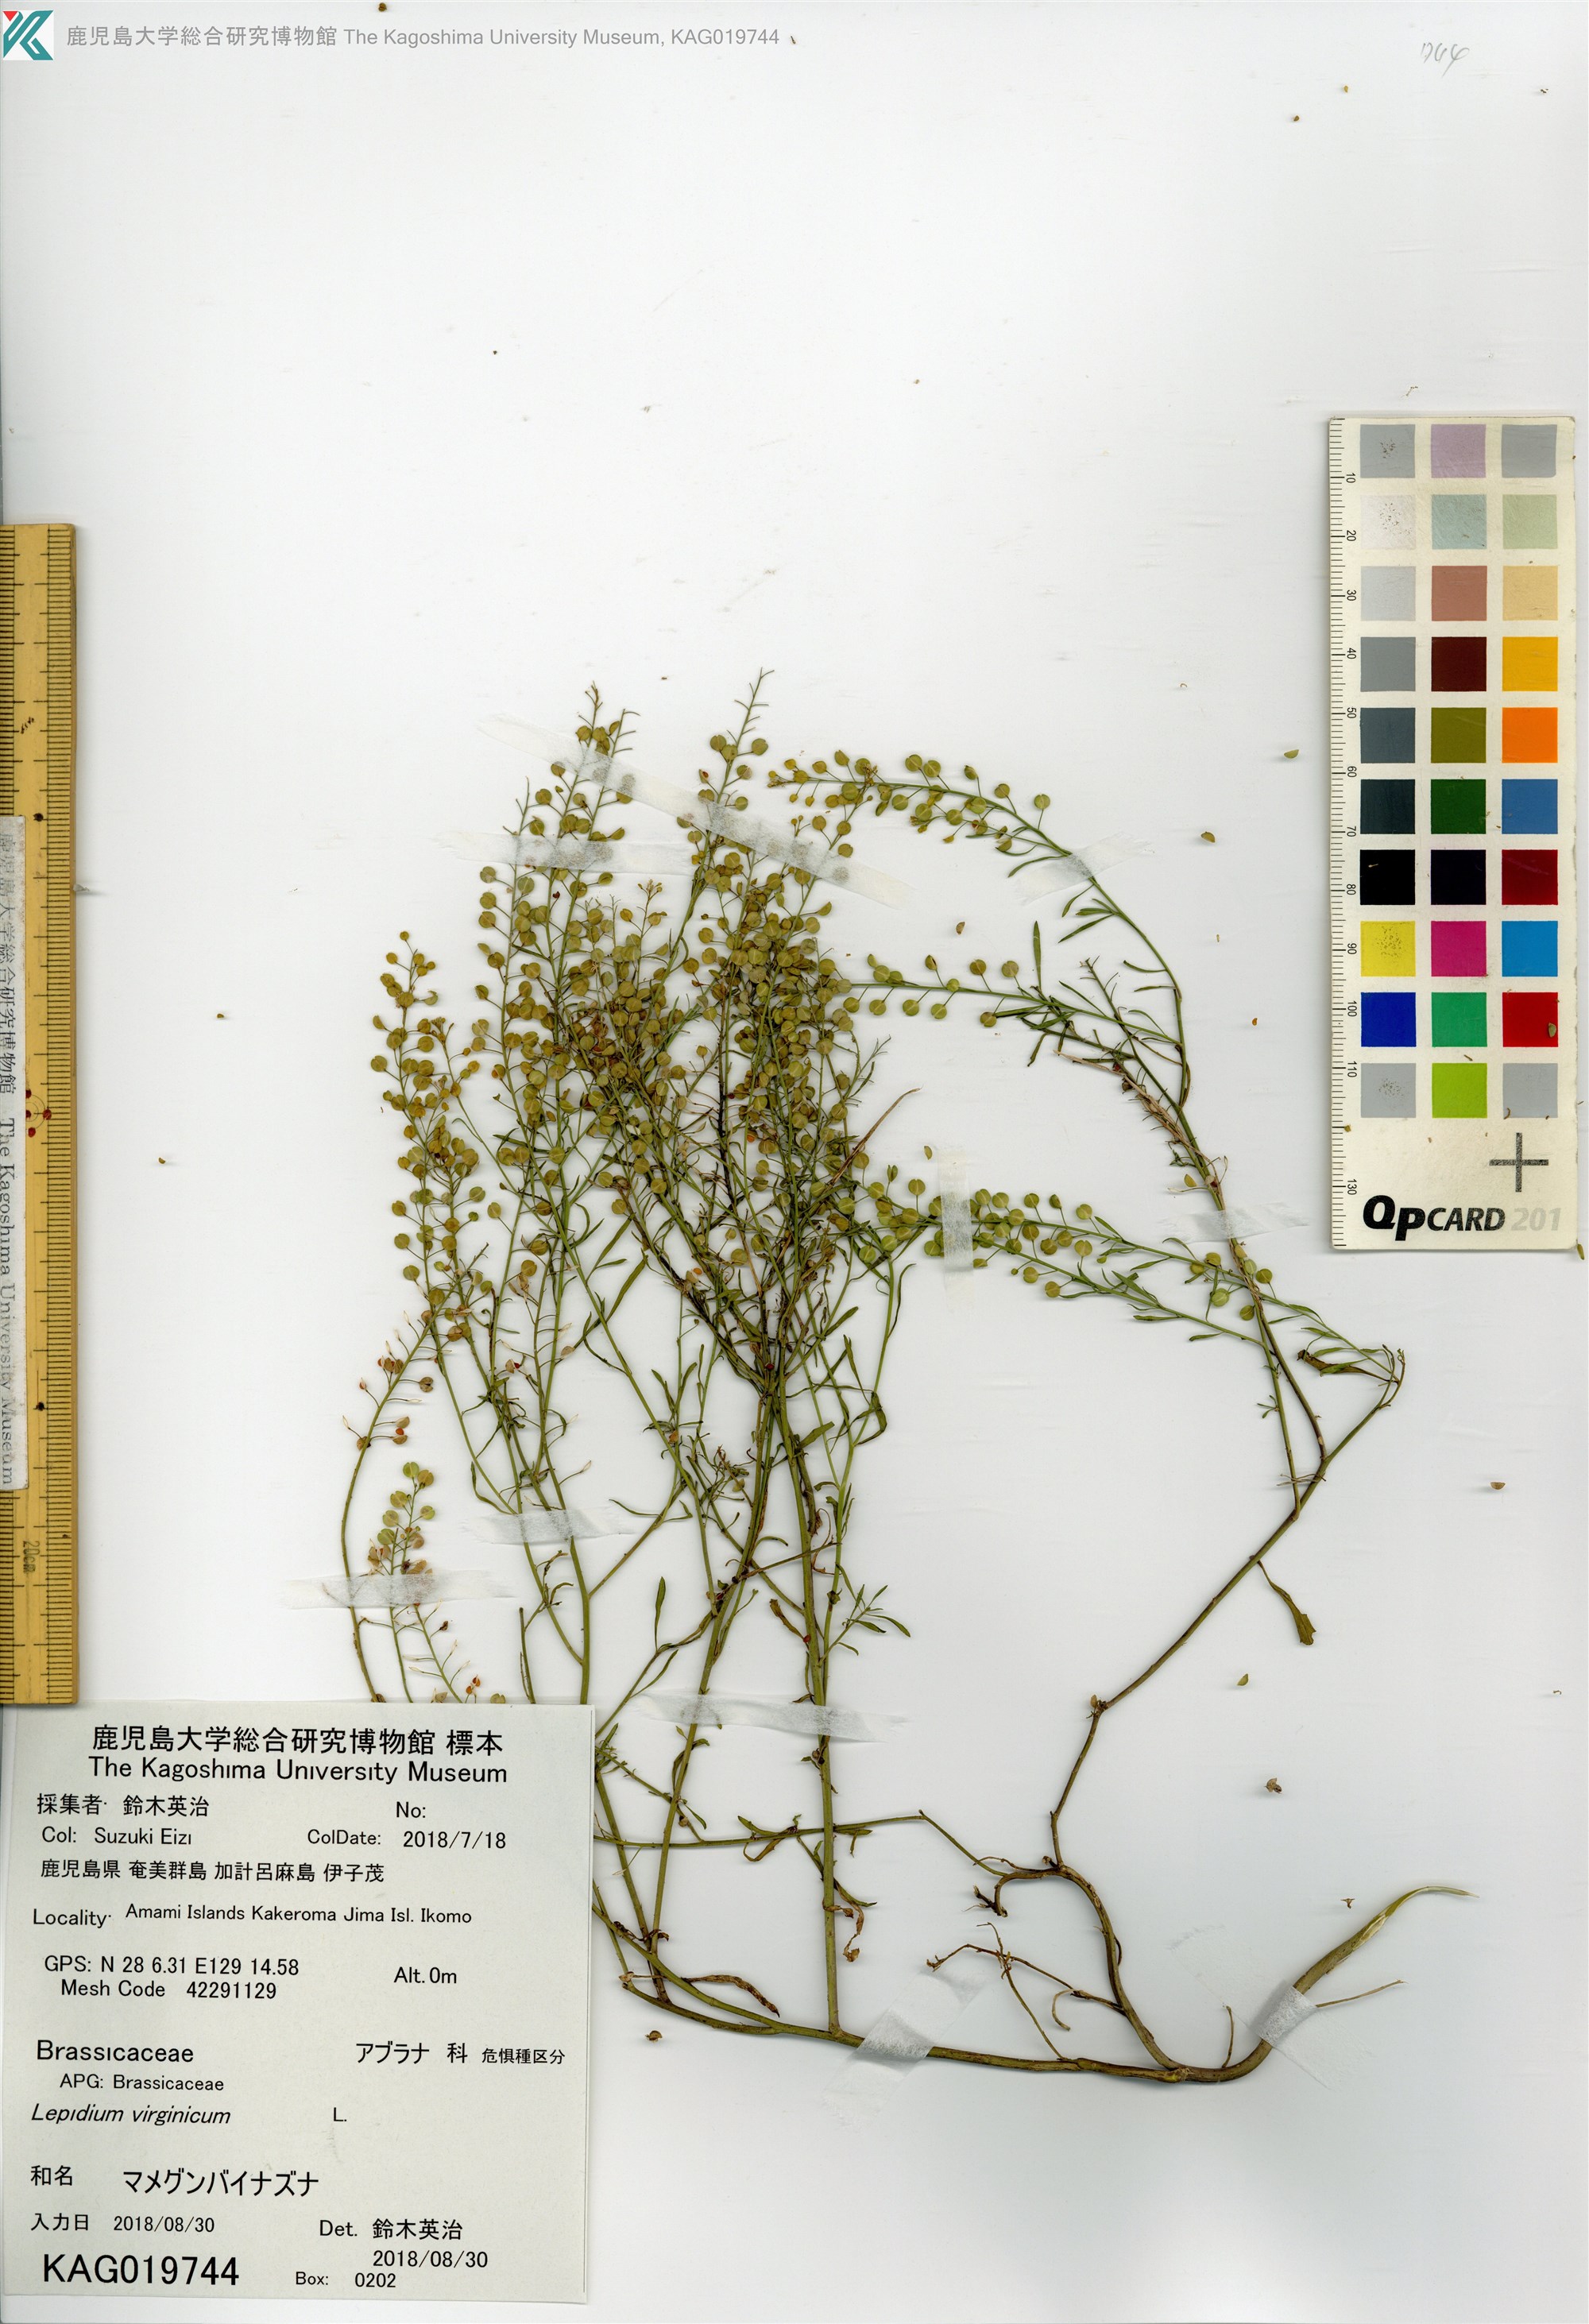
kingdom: Plantae
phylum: Tracheophyta
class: Magnoliopsida
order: Brassicales
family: Brassicaceae
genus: Lepidium
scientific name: Lepidium virginicum
